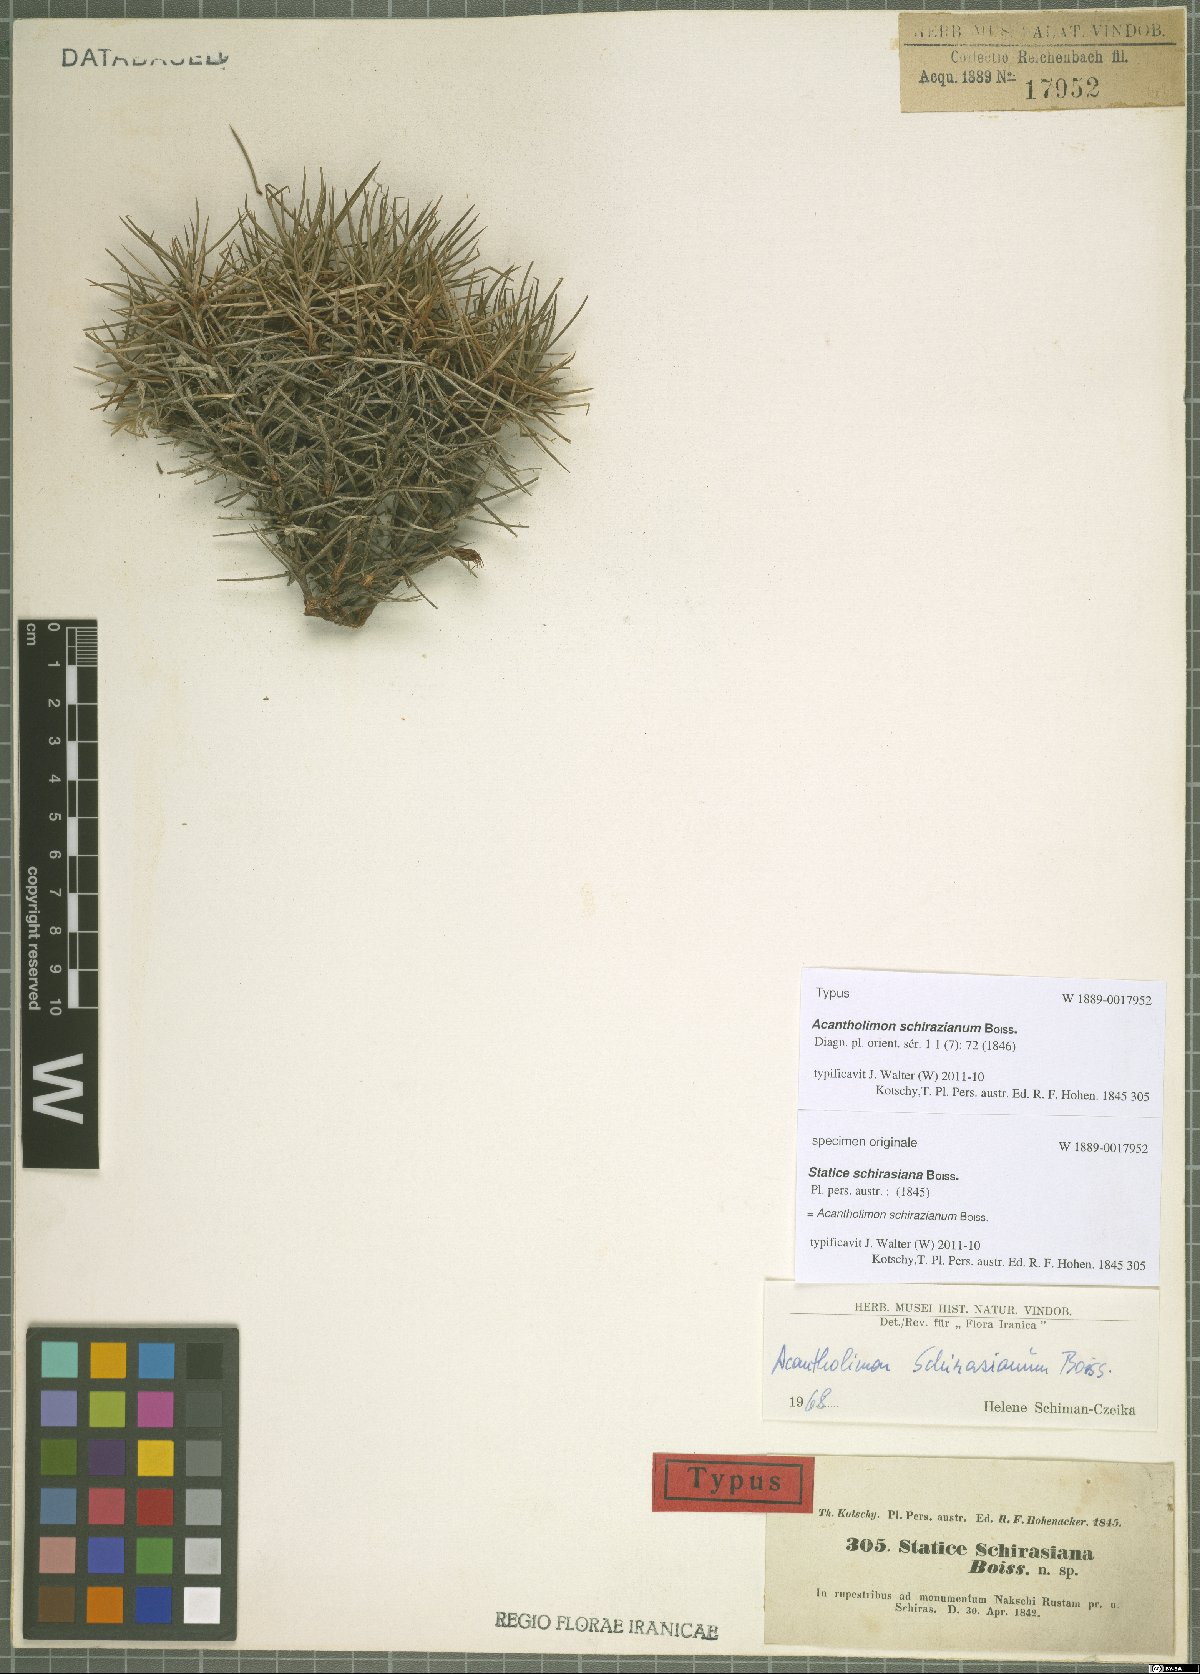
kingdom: Plantae
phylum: Tracheophyta
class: Magnoliopsida
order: Caryophyllales
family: Plumbaginaceae
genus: Acantholimon
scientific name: Acantholimon schirazianum
